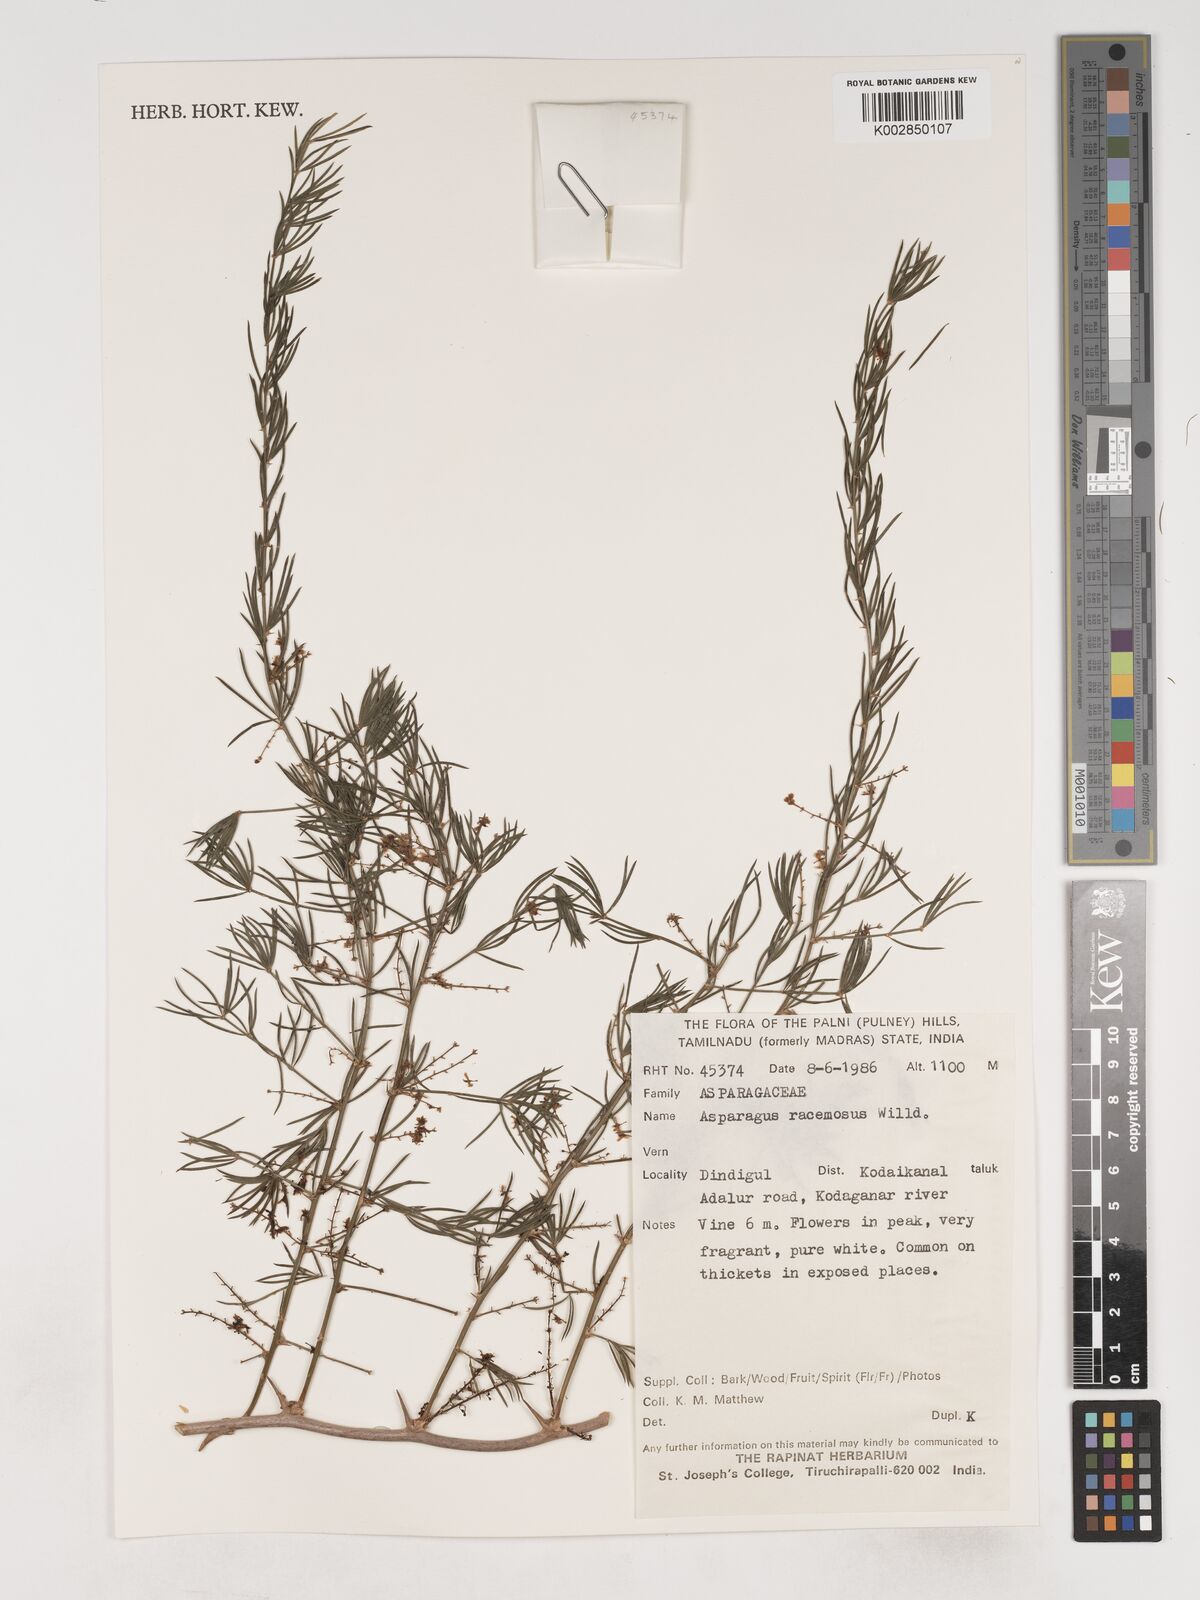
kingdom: Plantae
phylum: Tracheophyta
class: Liliopsida
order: Asparagales
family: Asparagaceae
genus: Asparagus
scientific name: Asparagus racemosus
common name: Asparagus-fern
